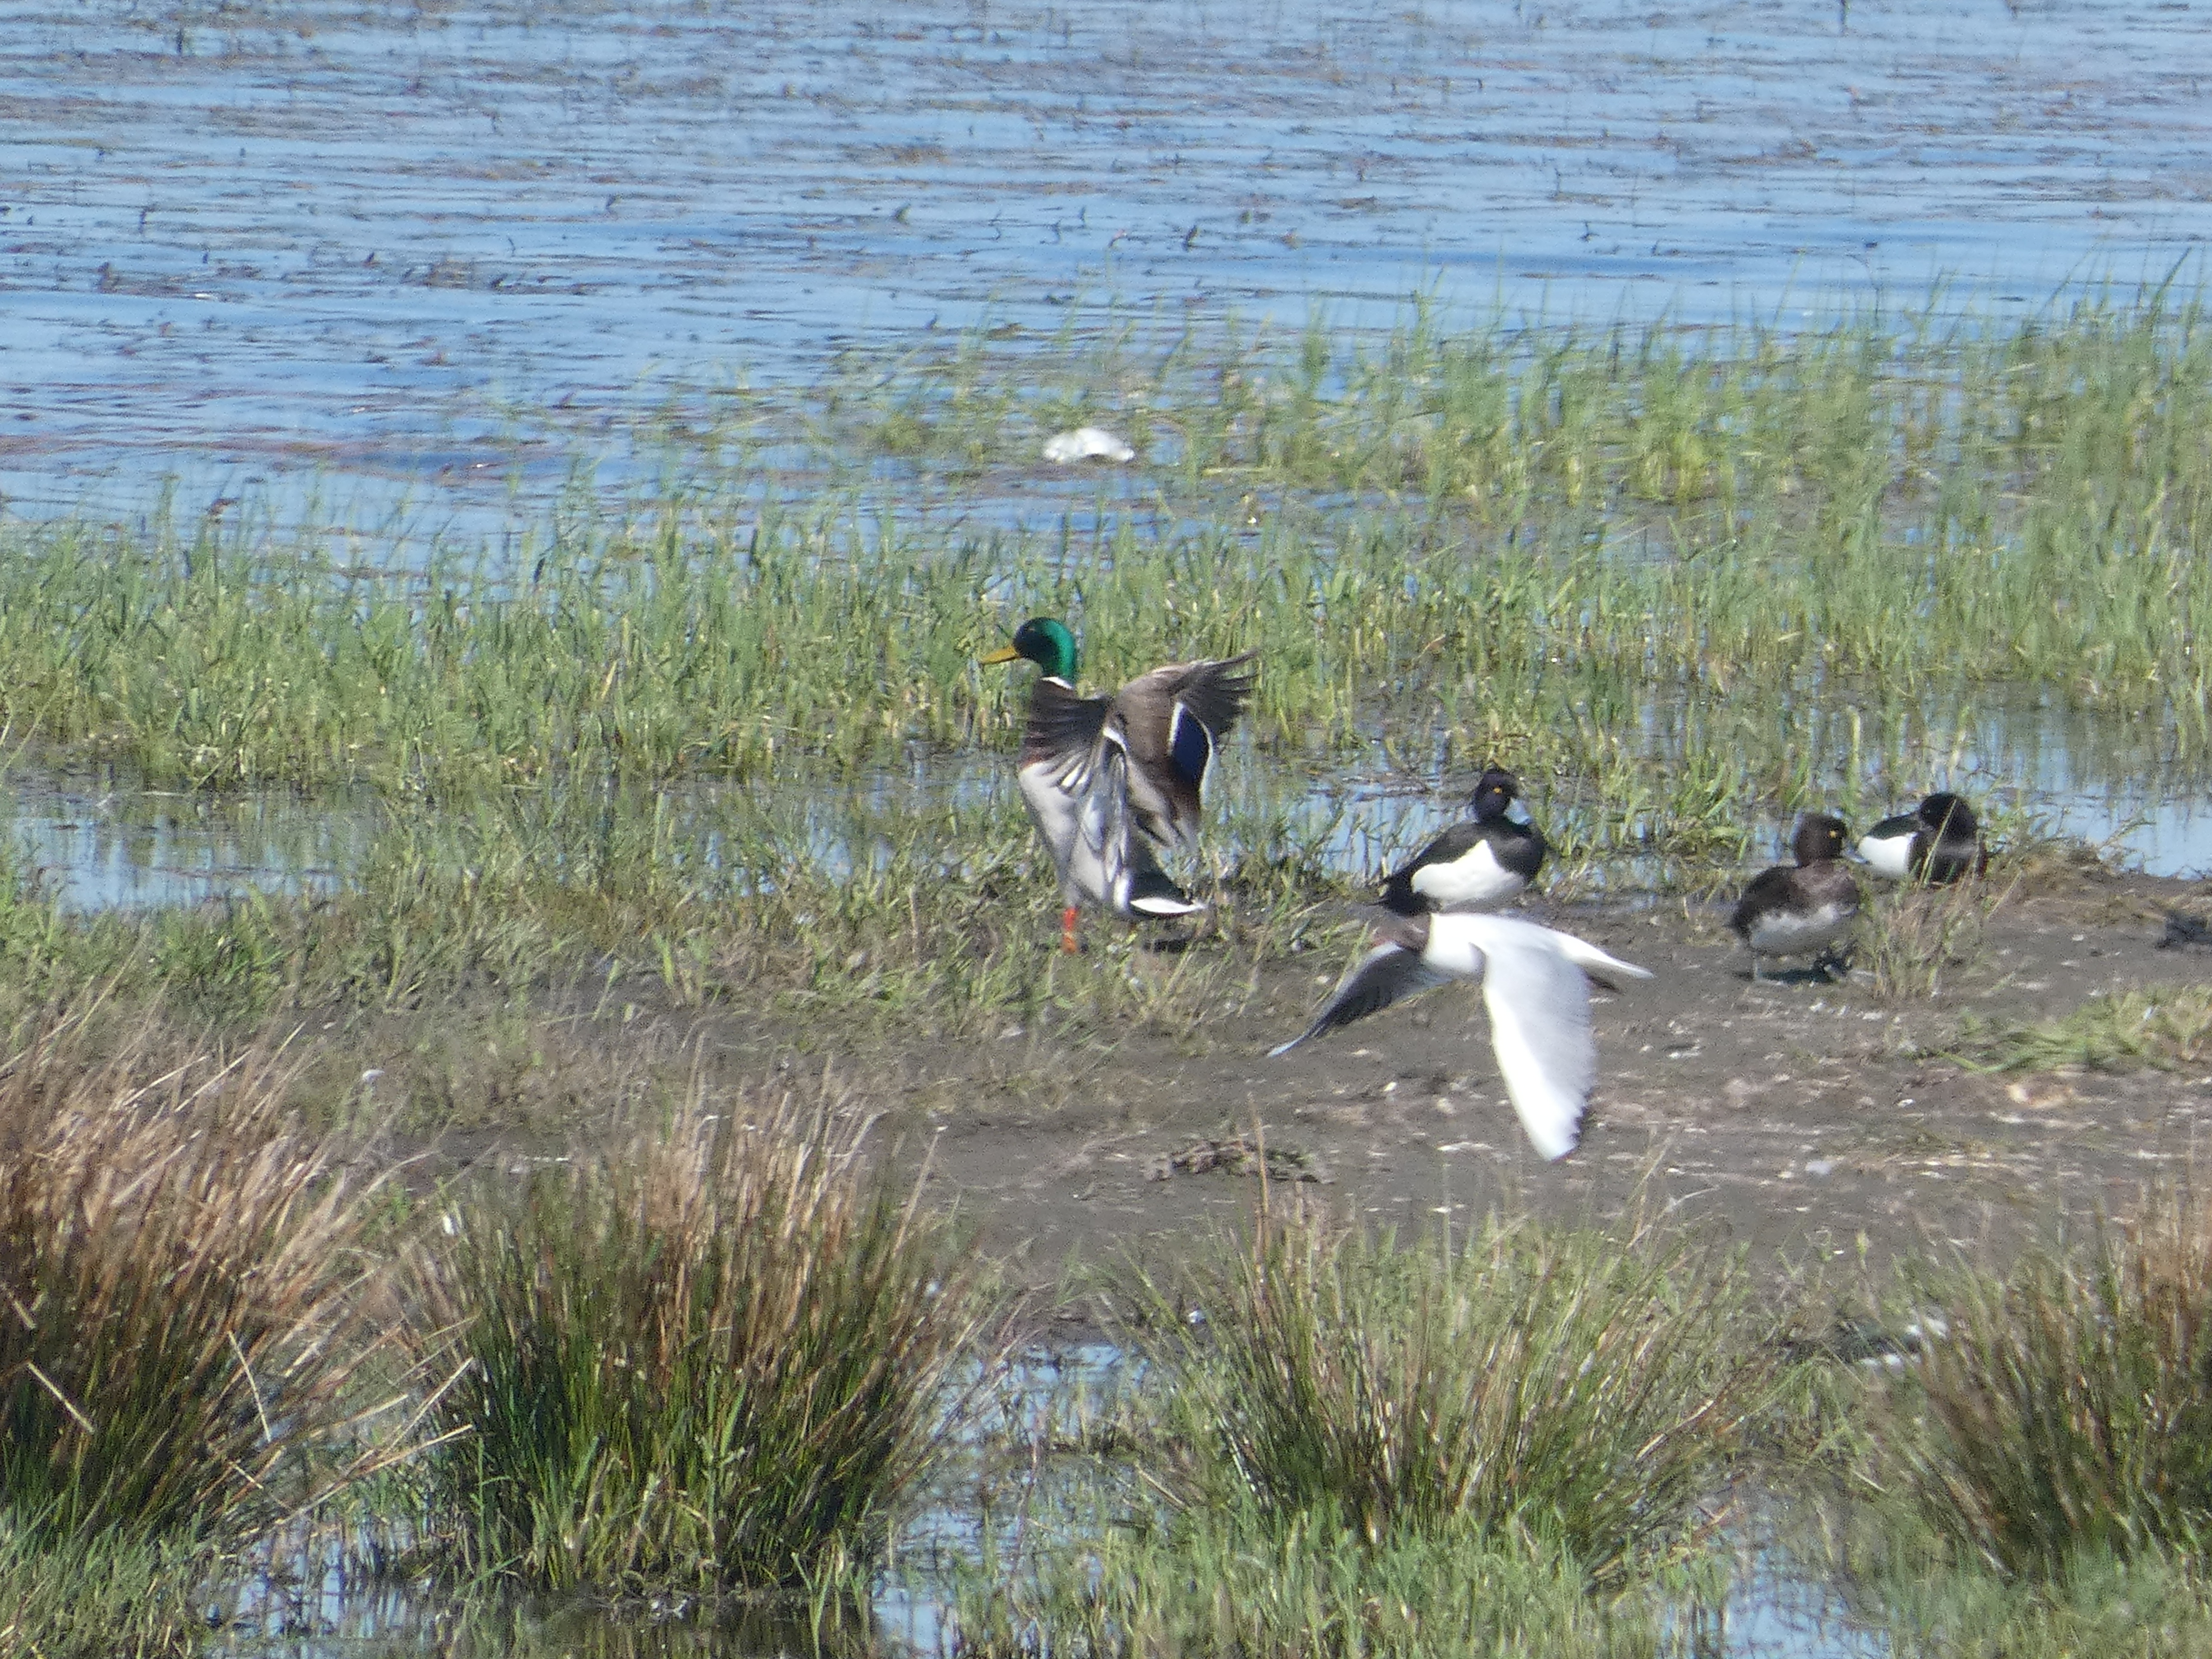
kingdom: Animalia
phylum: Chordata
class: Aves
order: Anseriformes
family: Anatidae
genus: Aythya
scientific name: Aythya fuligula
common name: Troldand
